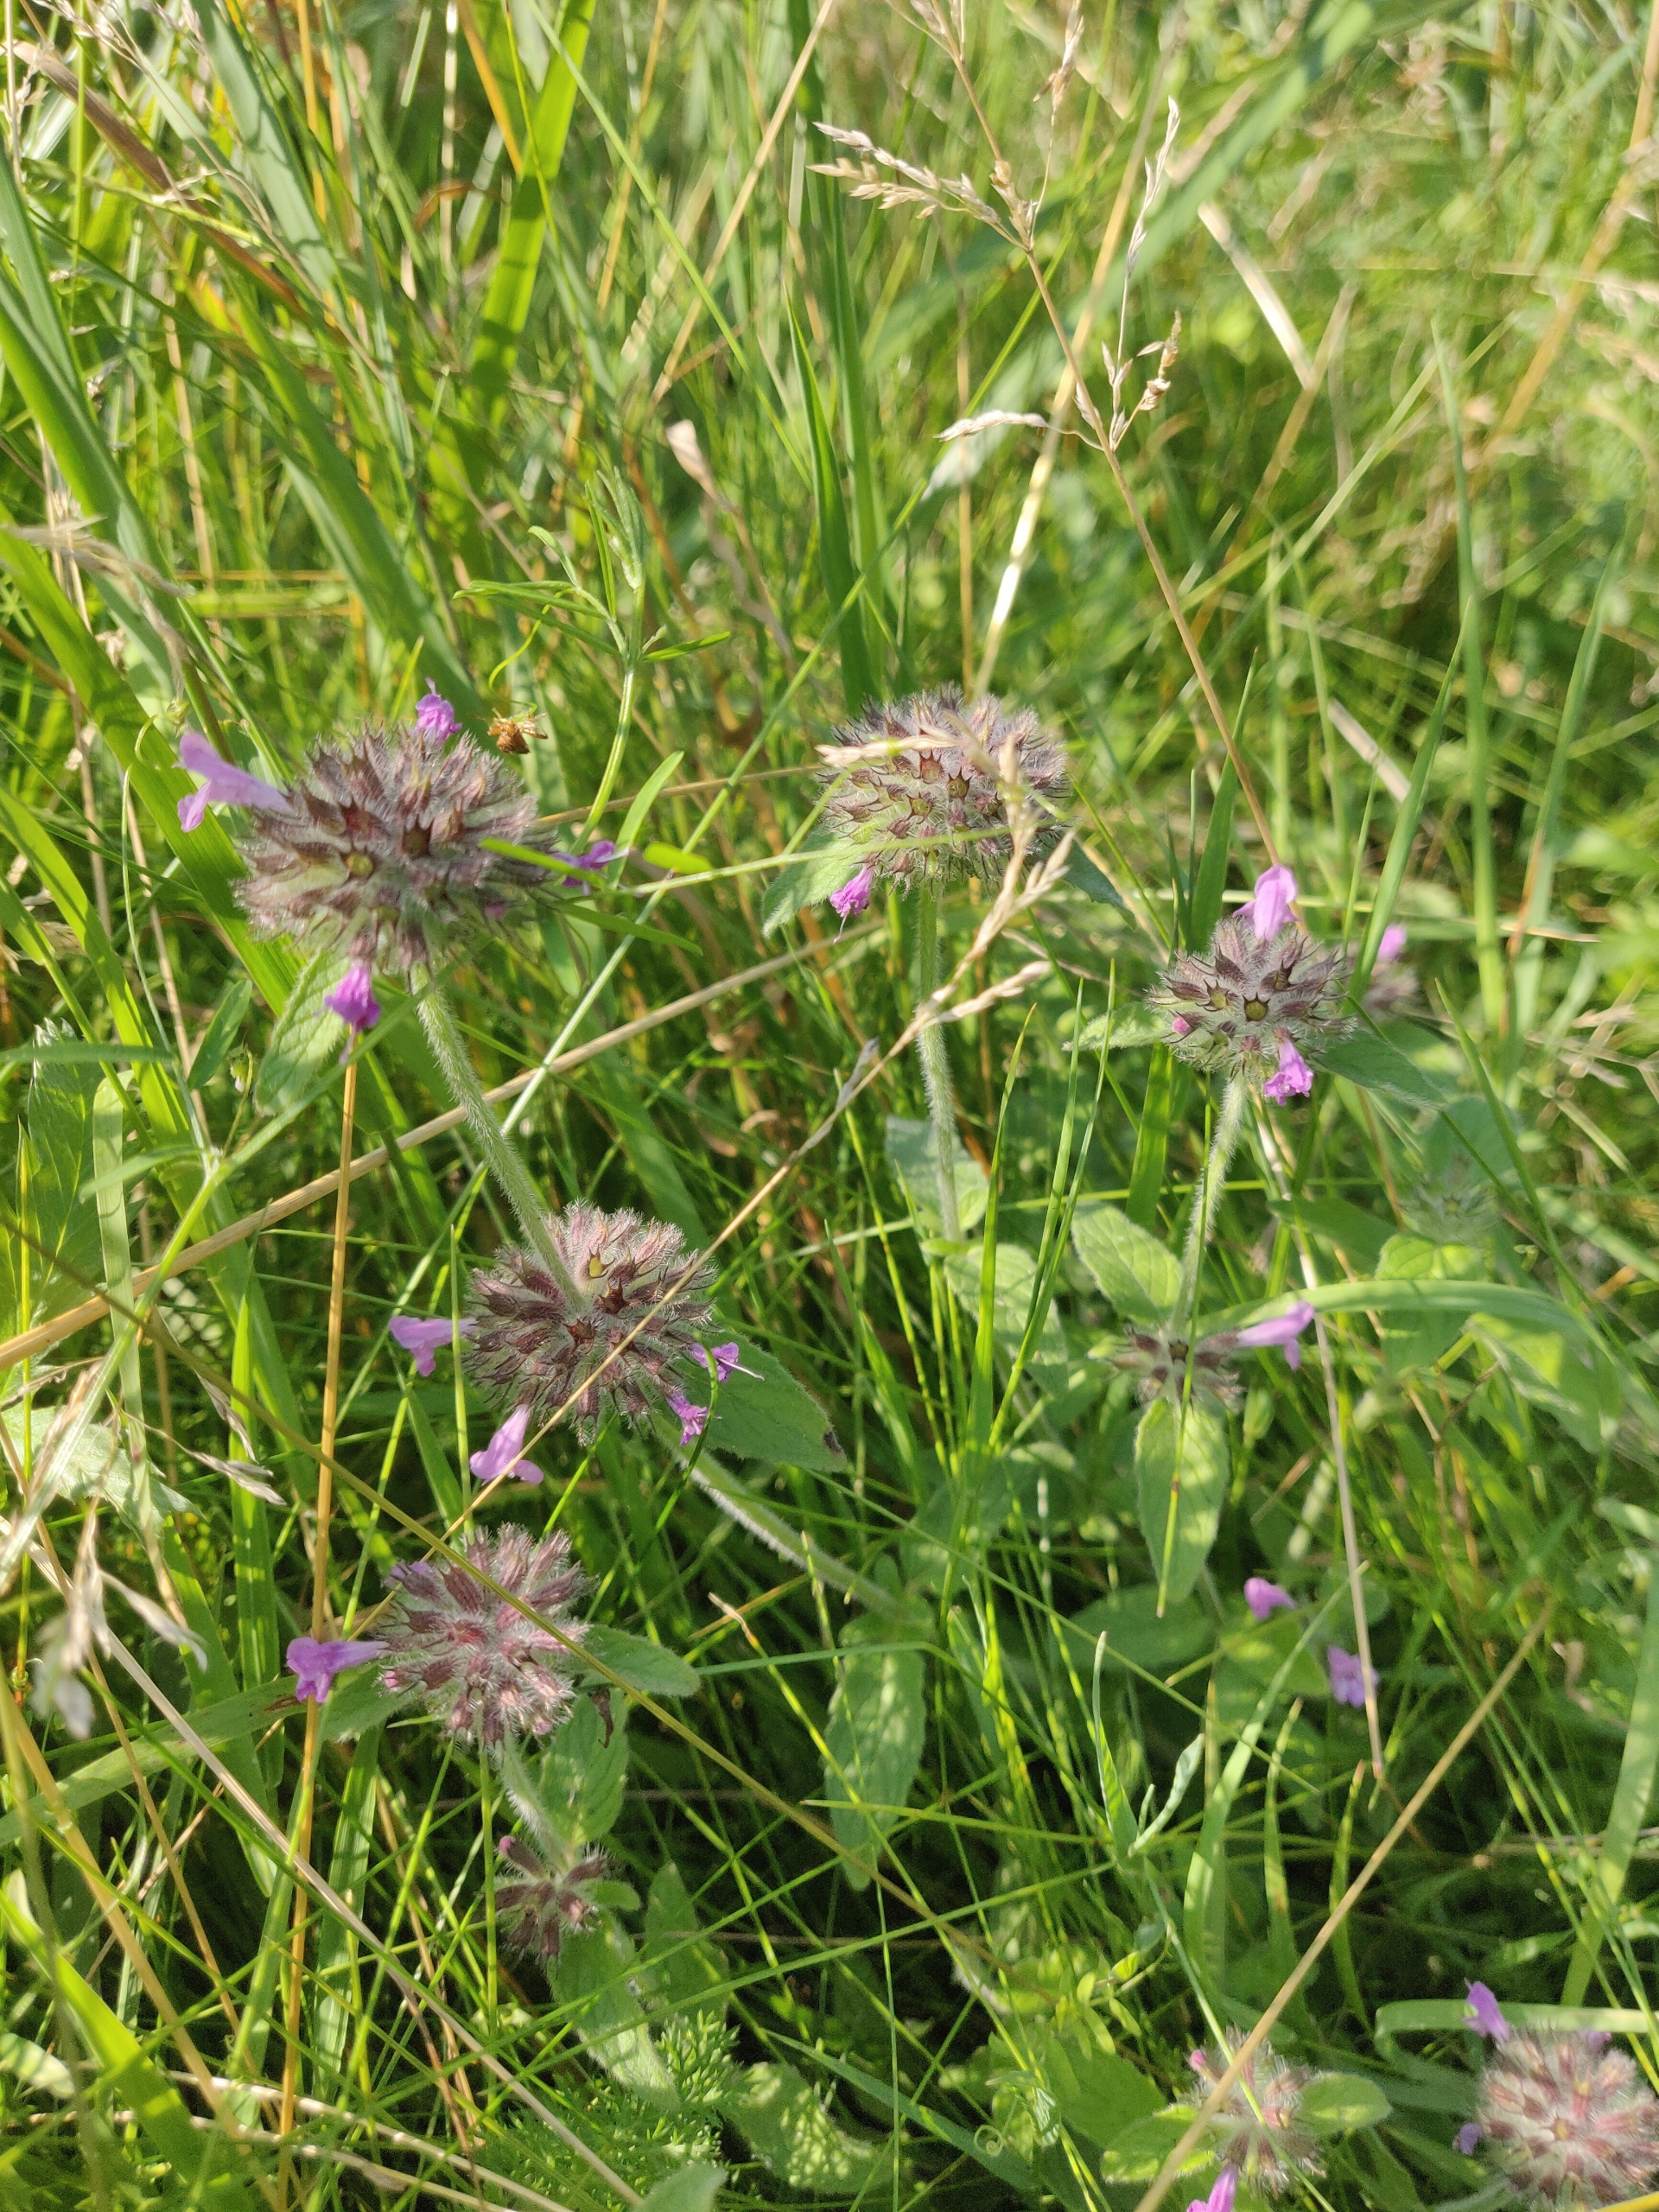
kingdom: Plantae
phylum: Tracheophyta
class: Magnoliopsida
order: Lamiales
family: Lamiaceae
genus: Clinopodium
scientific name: Clinopodium vulgare
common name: Kransbørste
